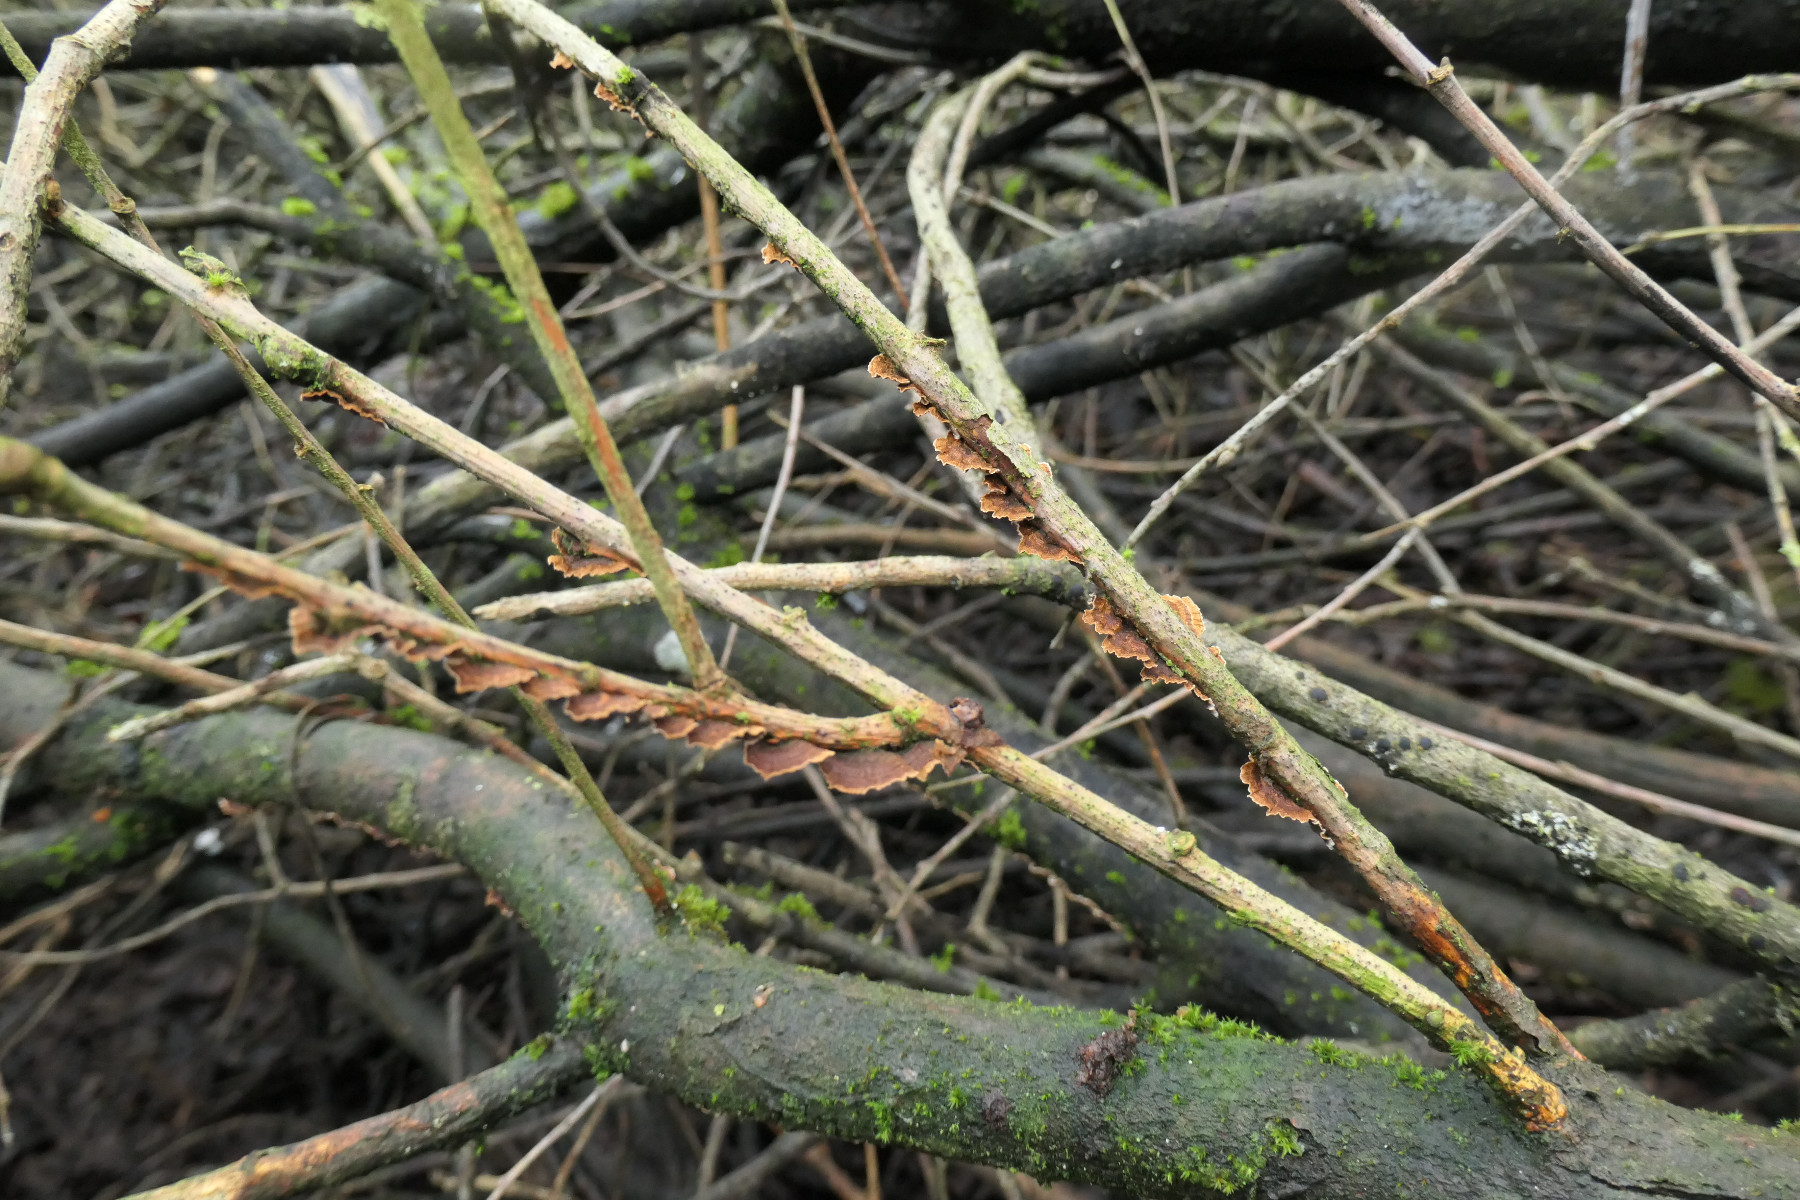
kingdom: Fungi
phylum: Basidiomycota
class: Agaricomycetes
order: Hymenochaetales
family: Hymenochaetaceae
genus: Hydnoporia
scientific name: Hydnoporia tabacina
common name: tobaksbrun ruslædersvamp
